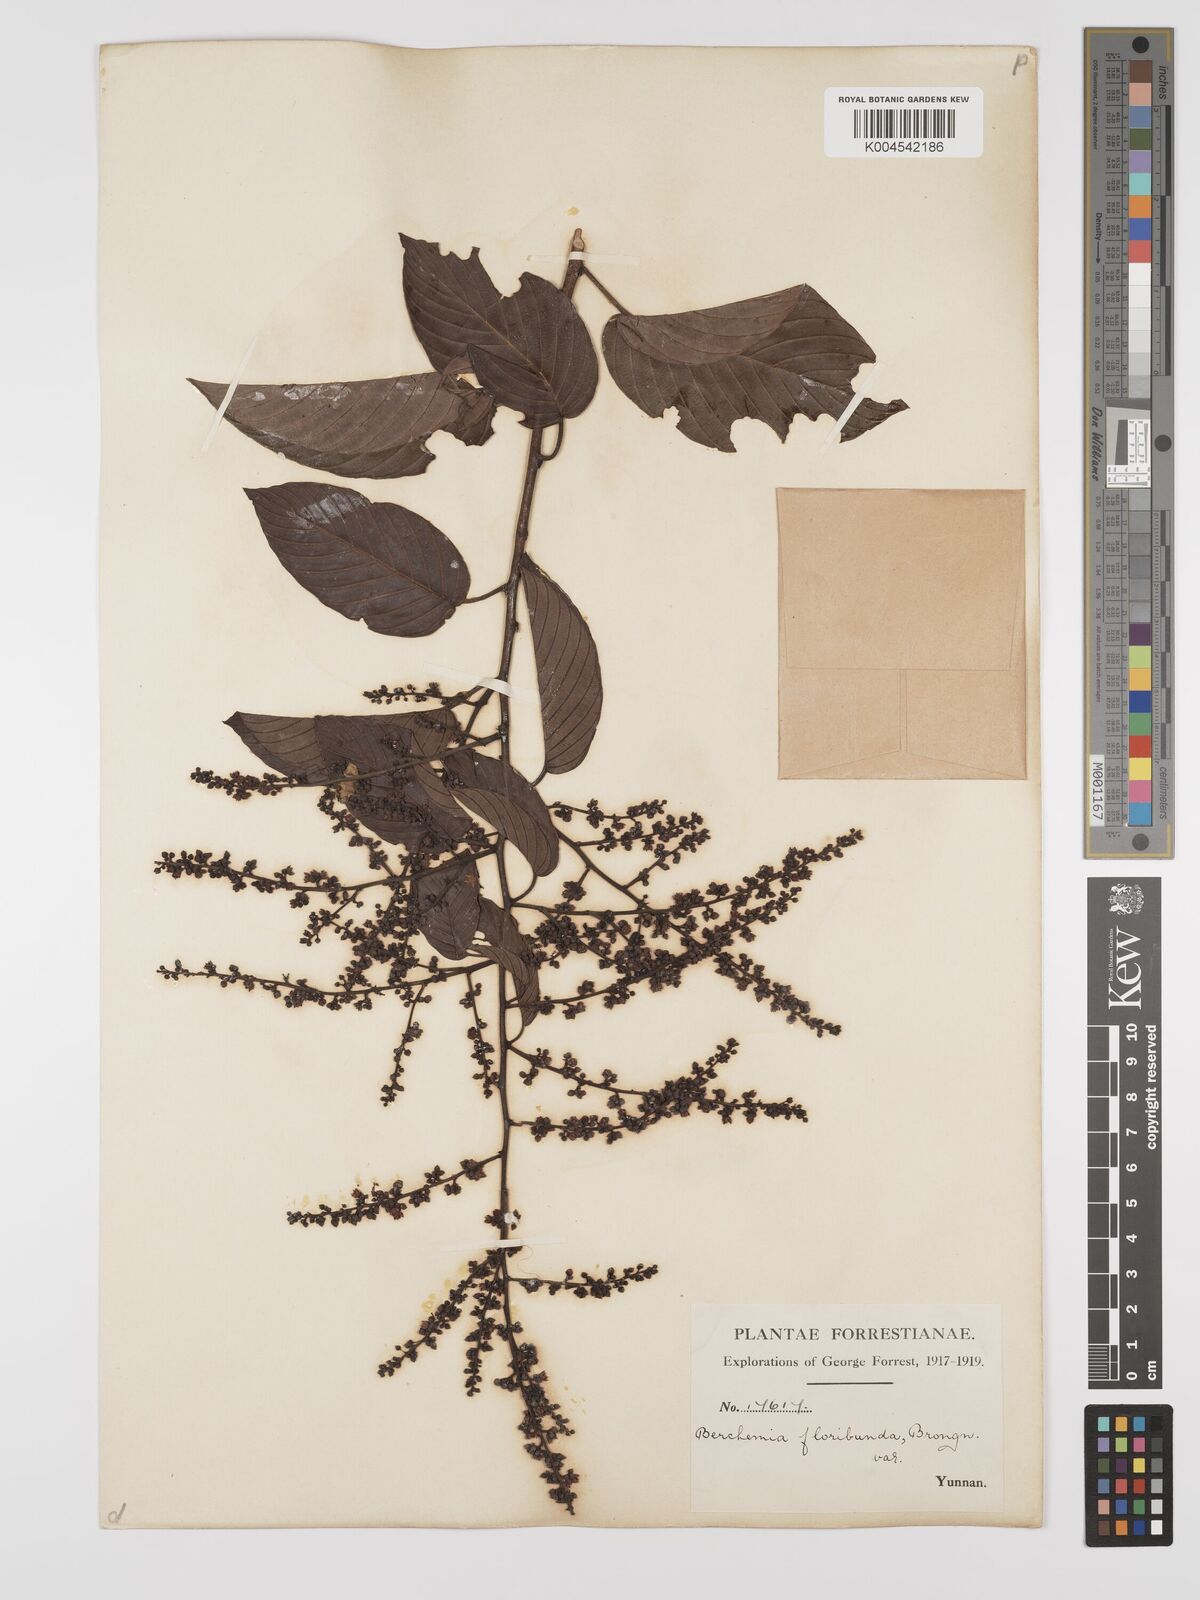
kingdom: Plantae
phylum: Tracheophyta
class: Magnoliopsida
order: Rosales
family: Rhamnaceae
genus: Berchemia
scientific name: Berchemia floribunda
